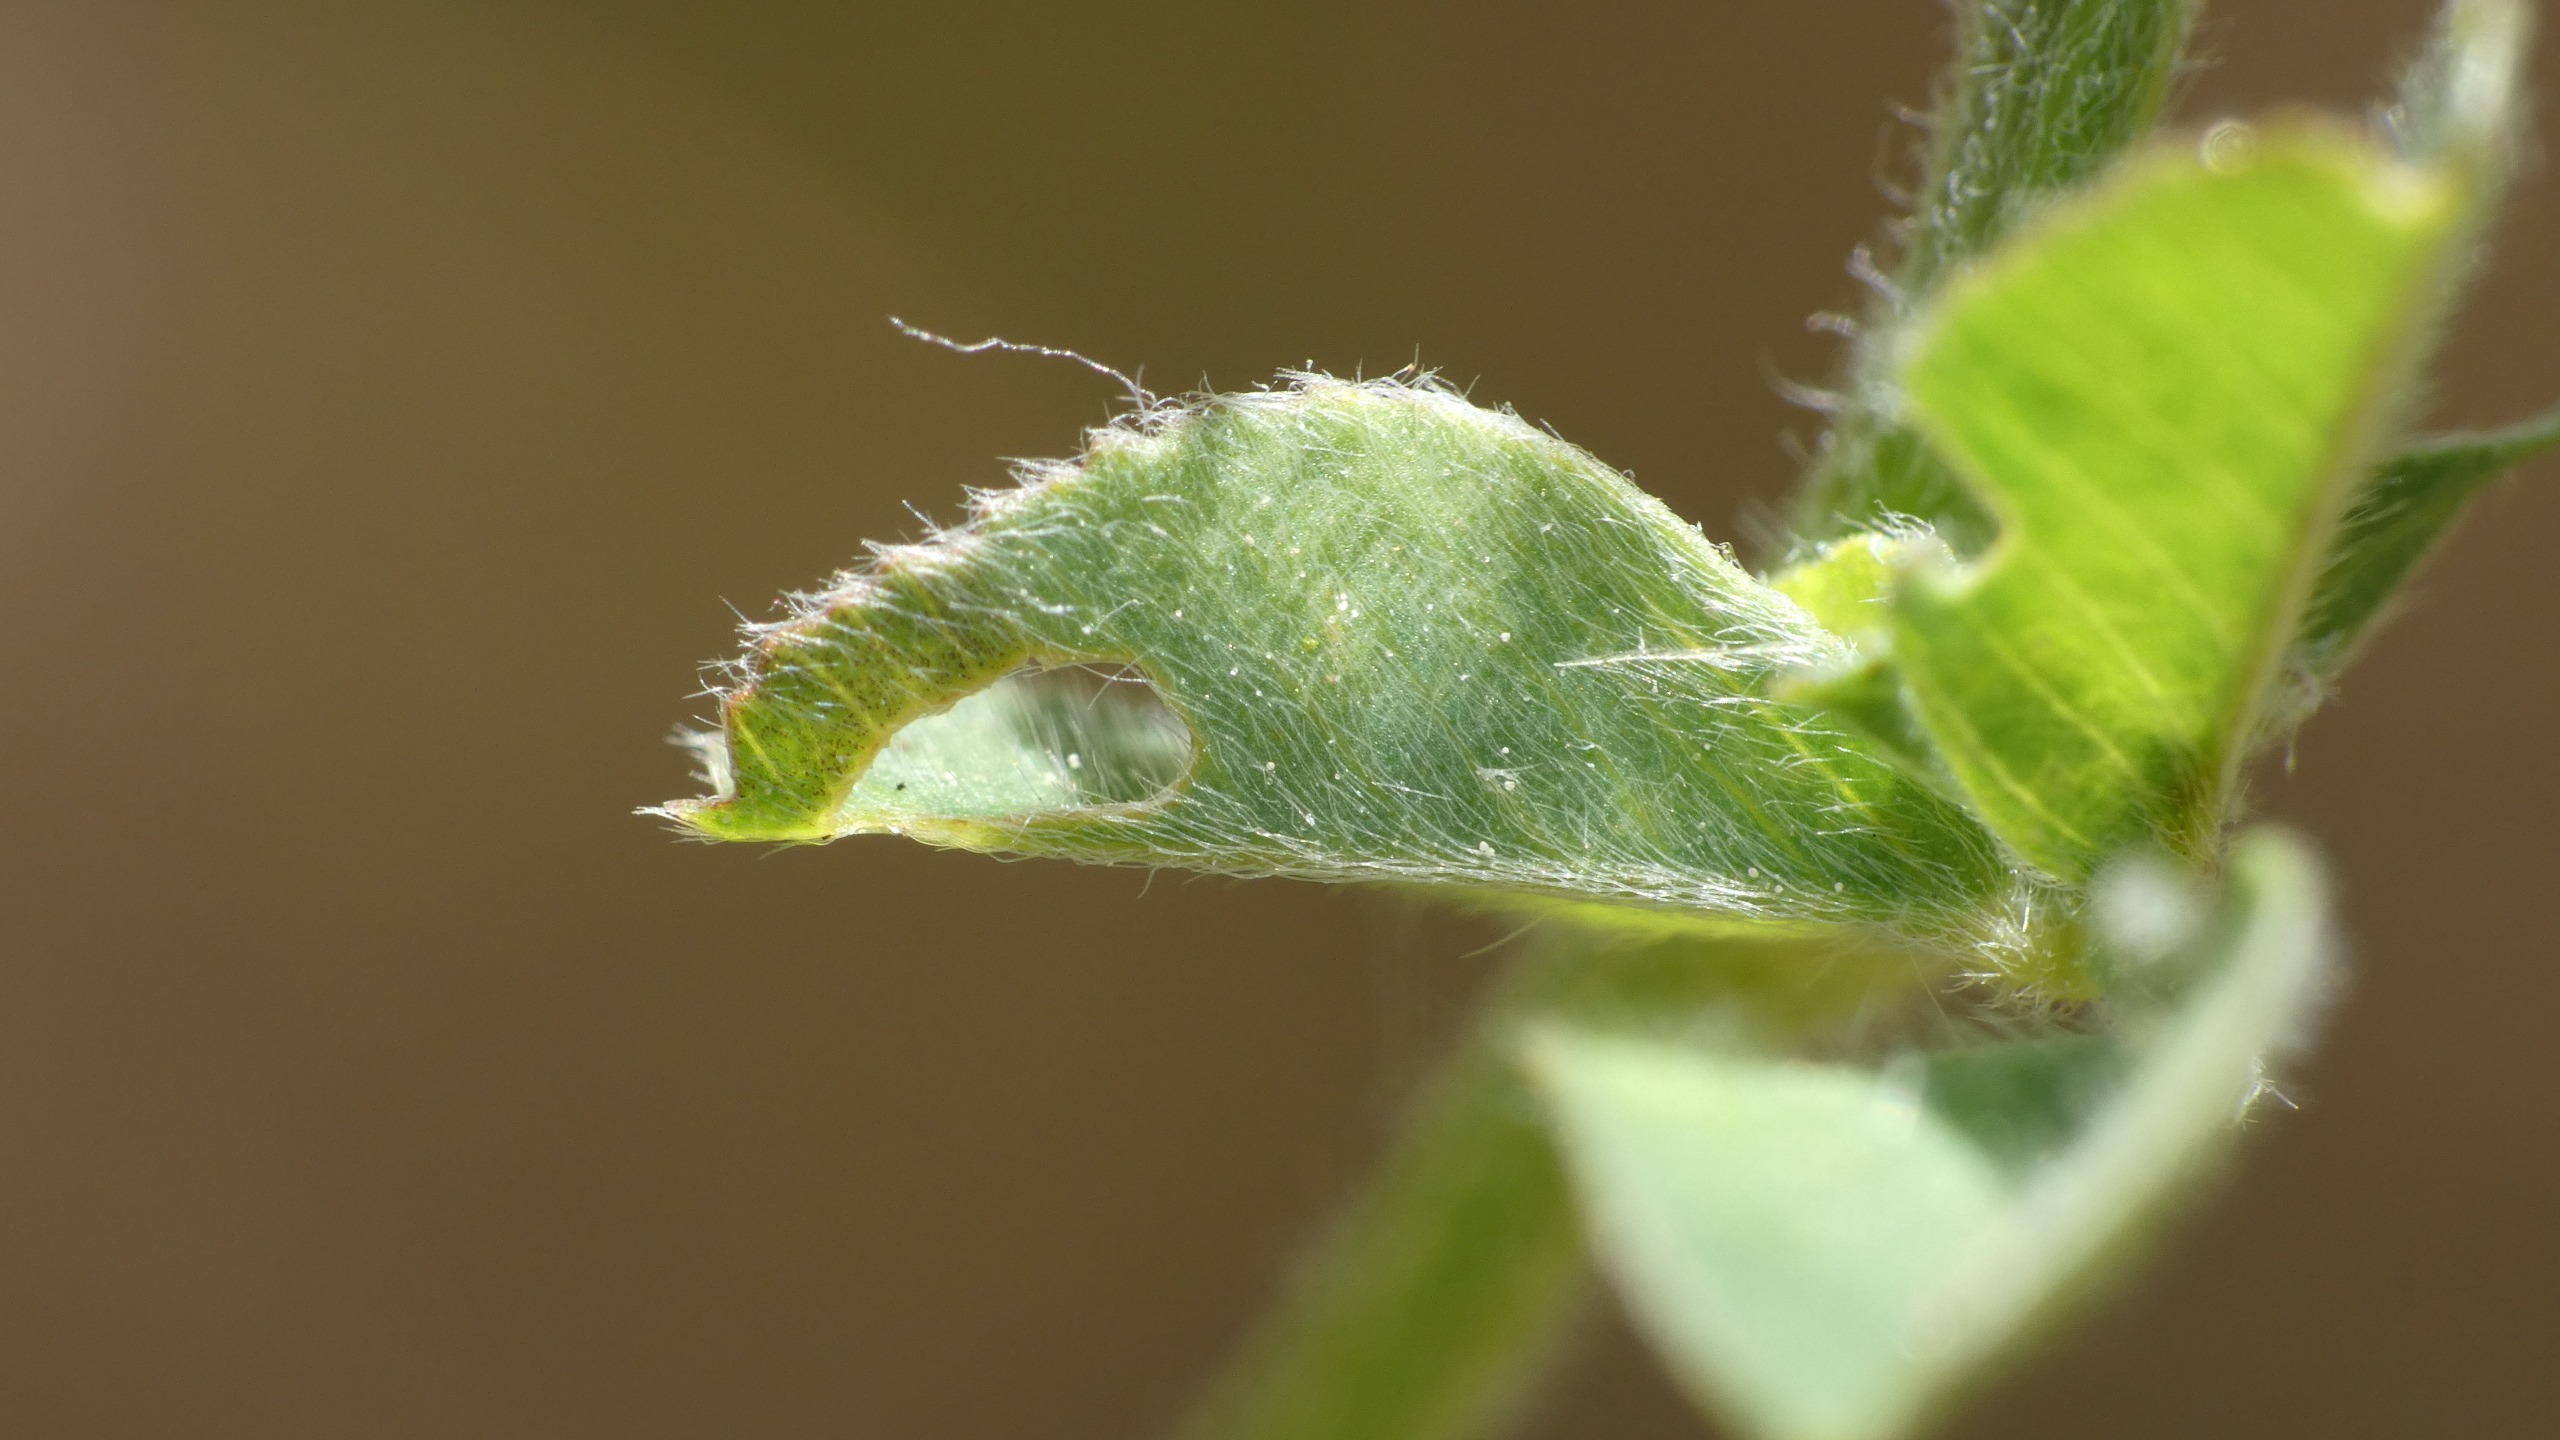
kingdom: Plantae
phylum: Tracheophyta
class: Magnoliopsida
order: Fabales
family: Fabaceae
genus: Medicago
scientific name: Medicago lupulina
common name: Humle-sneglebælg
